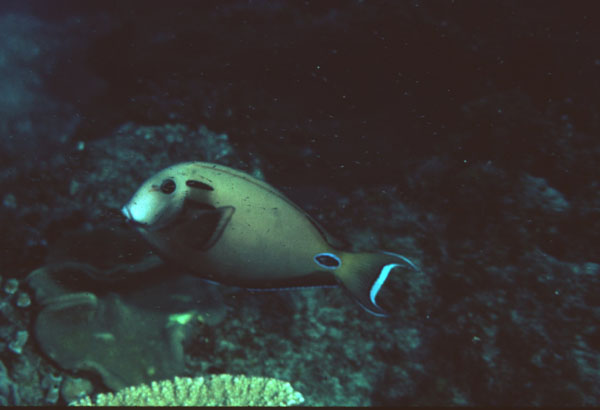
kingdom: Animalia
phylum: Chordata
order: Perciformes
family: Acanthuridae
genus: Acanthurus
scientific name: Acanthurus tennentii
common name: Doubleband surgeonfish
